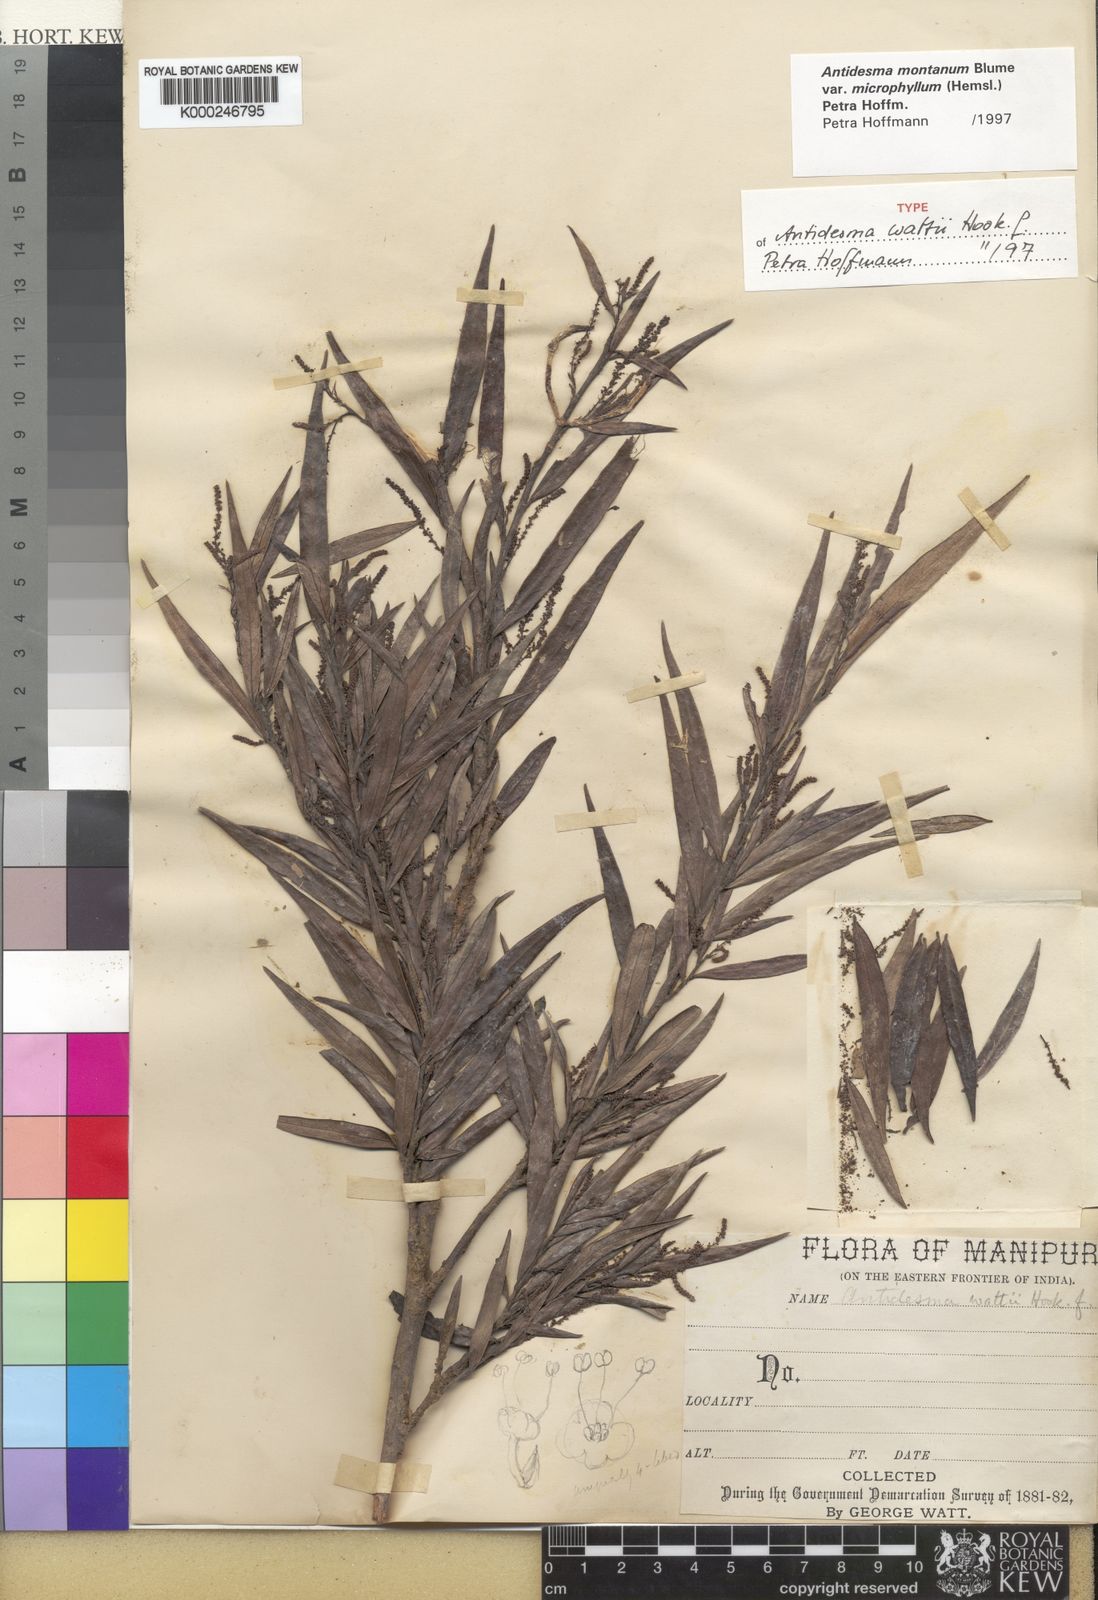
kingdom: Plantae
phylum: Tracheophyta
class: Magnoliopsida
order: Malpighiales
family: Phyllanthaceae
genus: Antidesma
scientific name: Antidesma montanum
